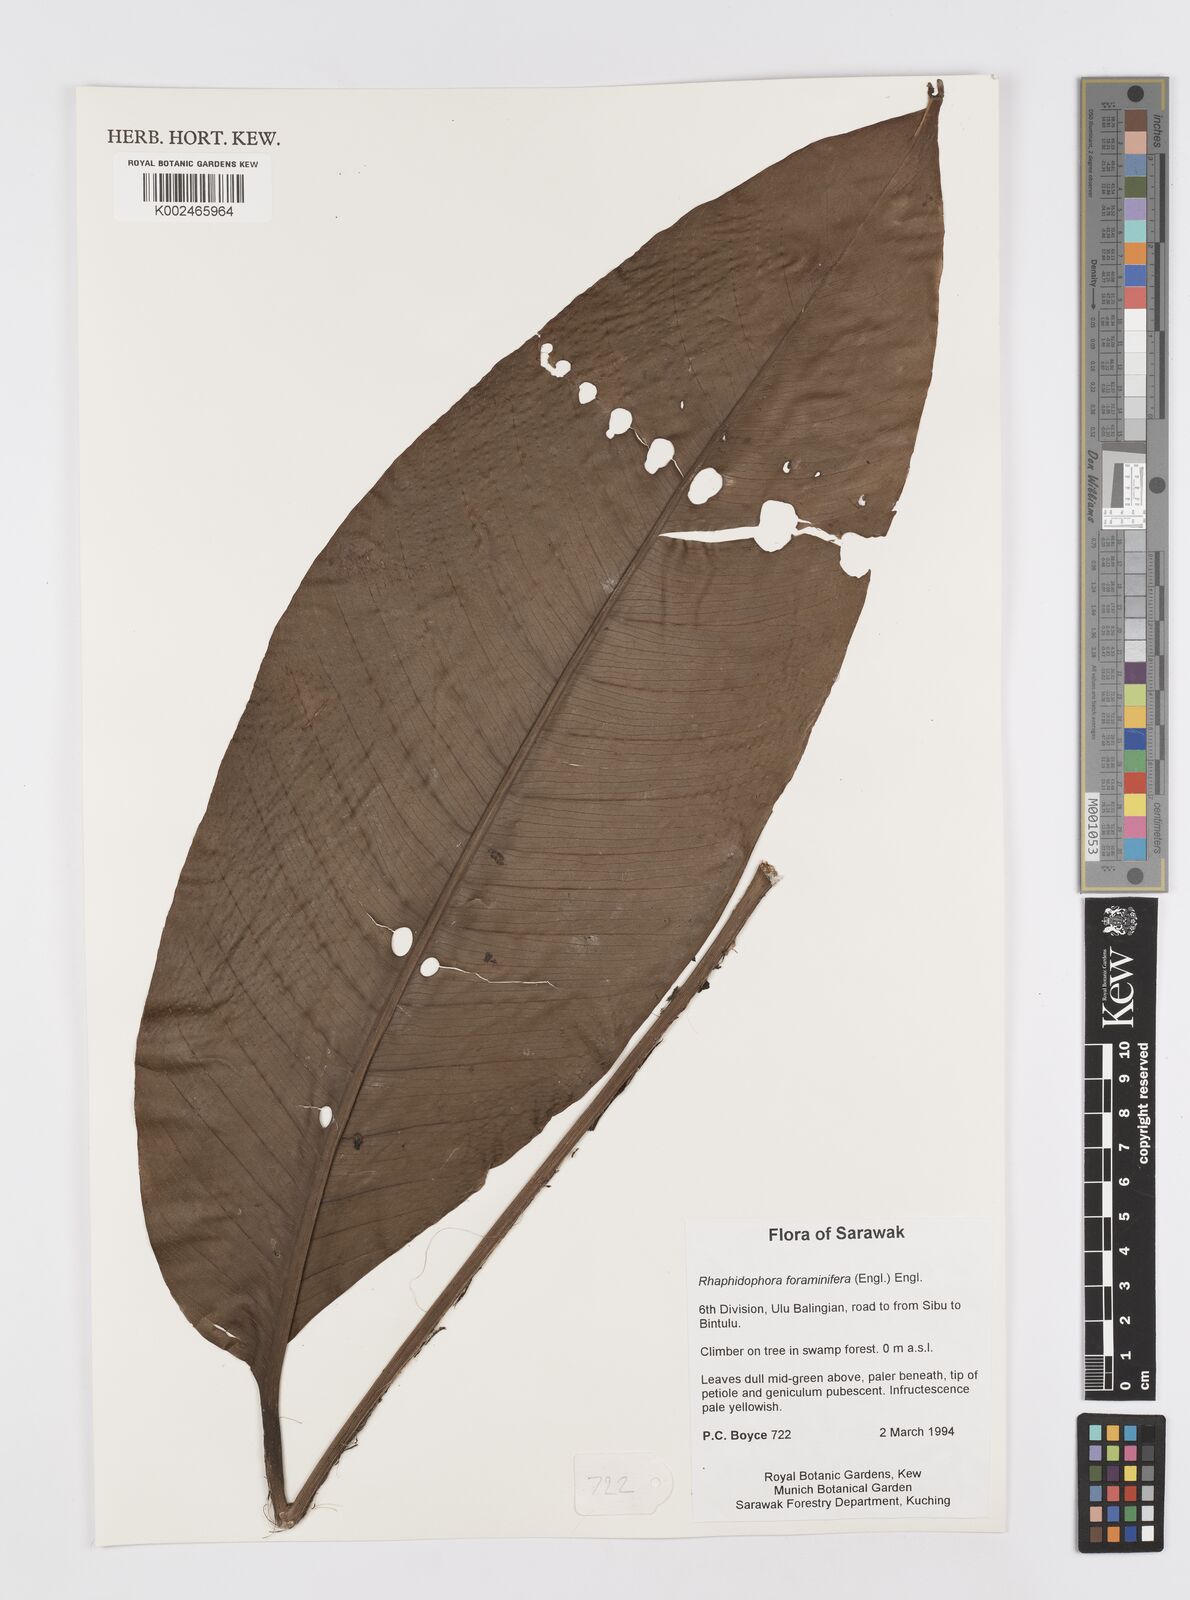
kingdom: Plantae
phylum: Tracheophyta
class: Liliopsida
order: Alismatales
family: Araceae
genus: Rhaphidophora
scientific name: Rhaphidophora foraminifera
